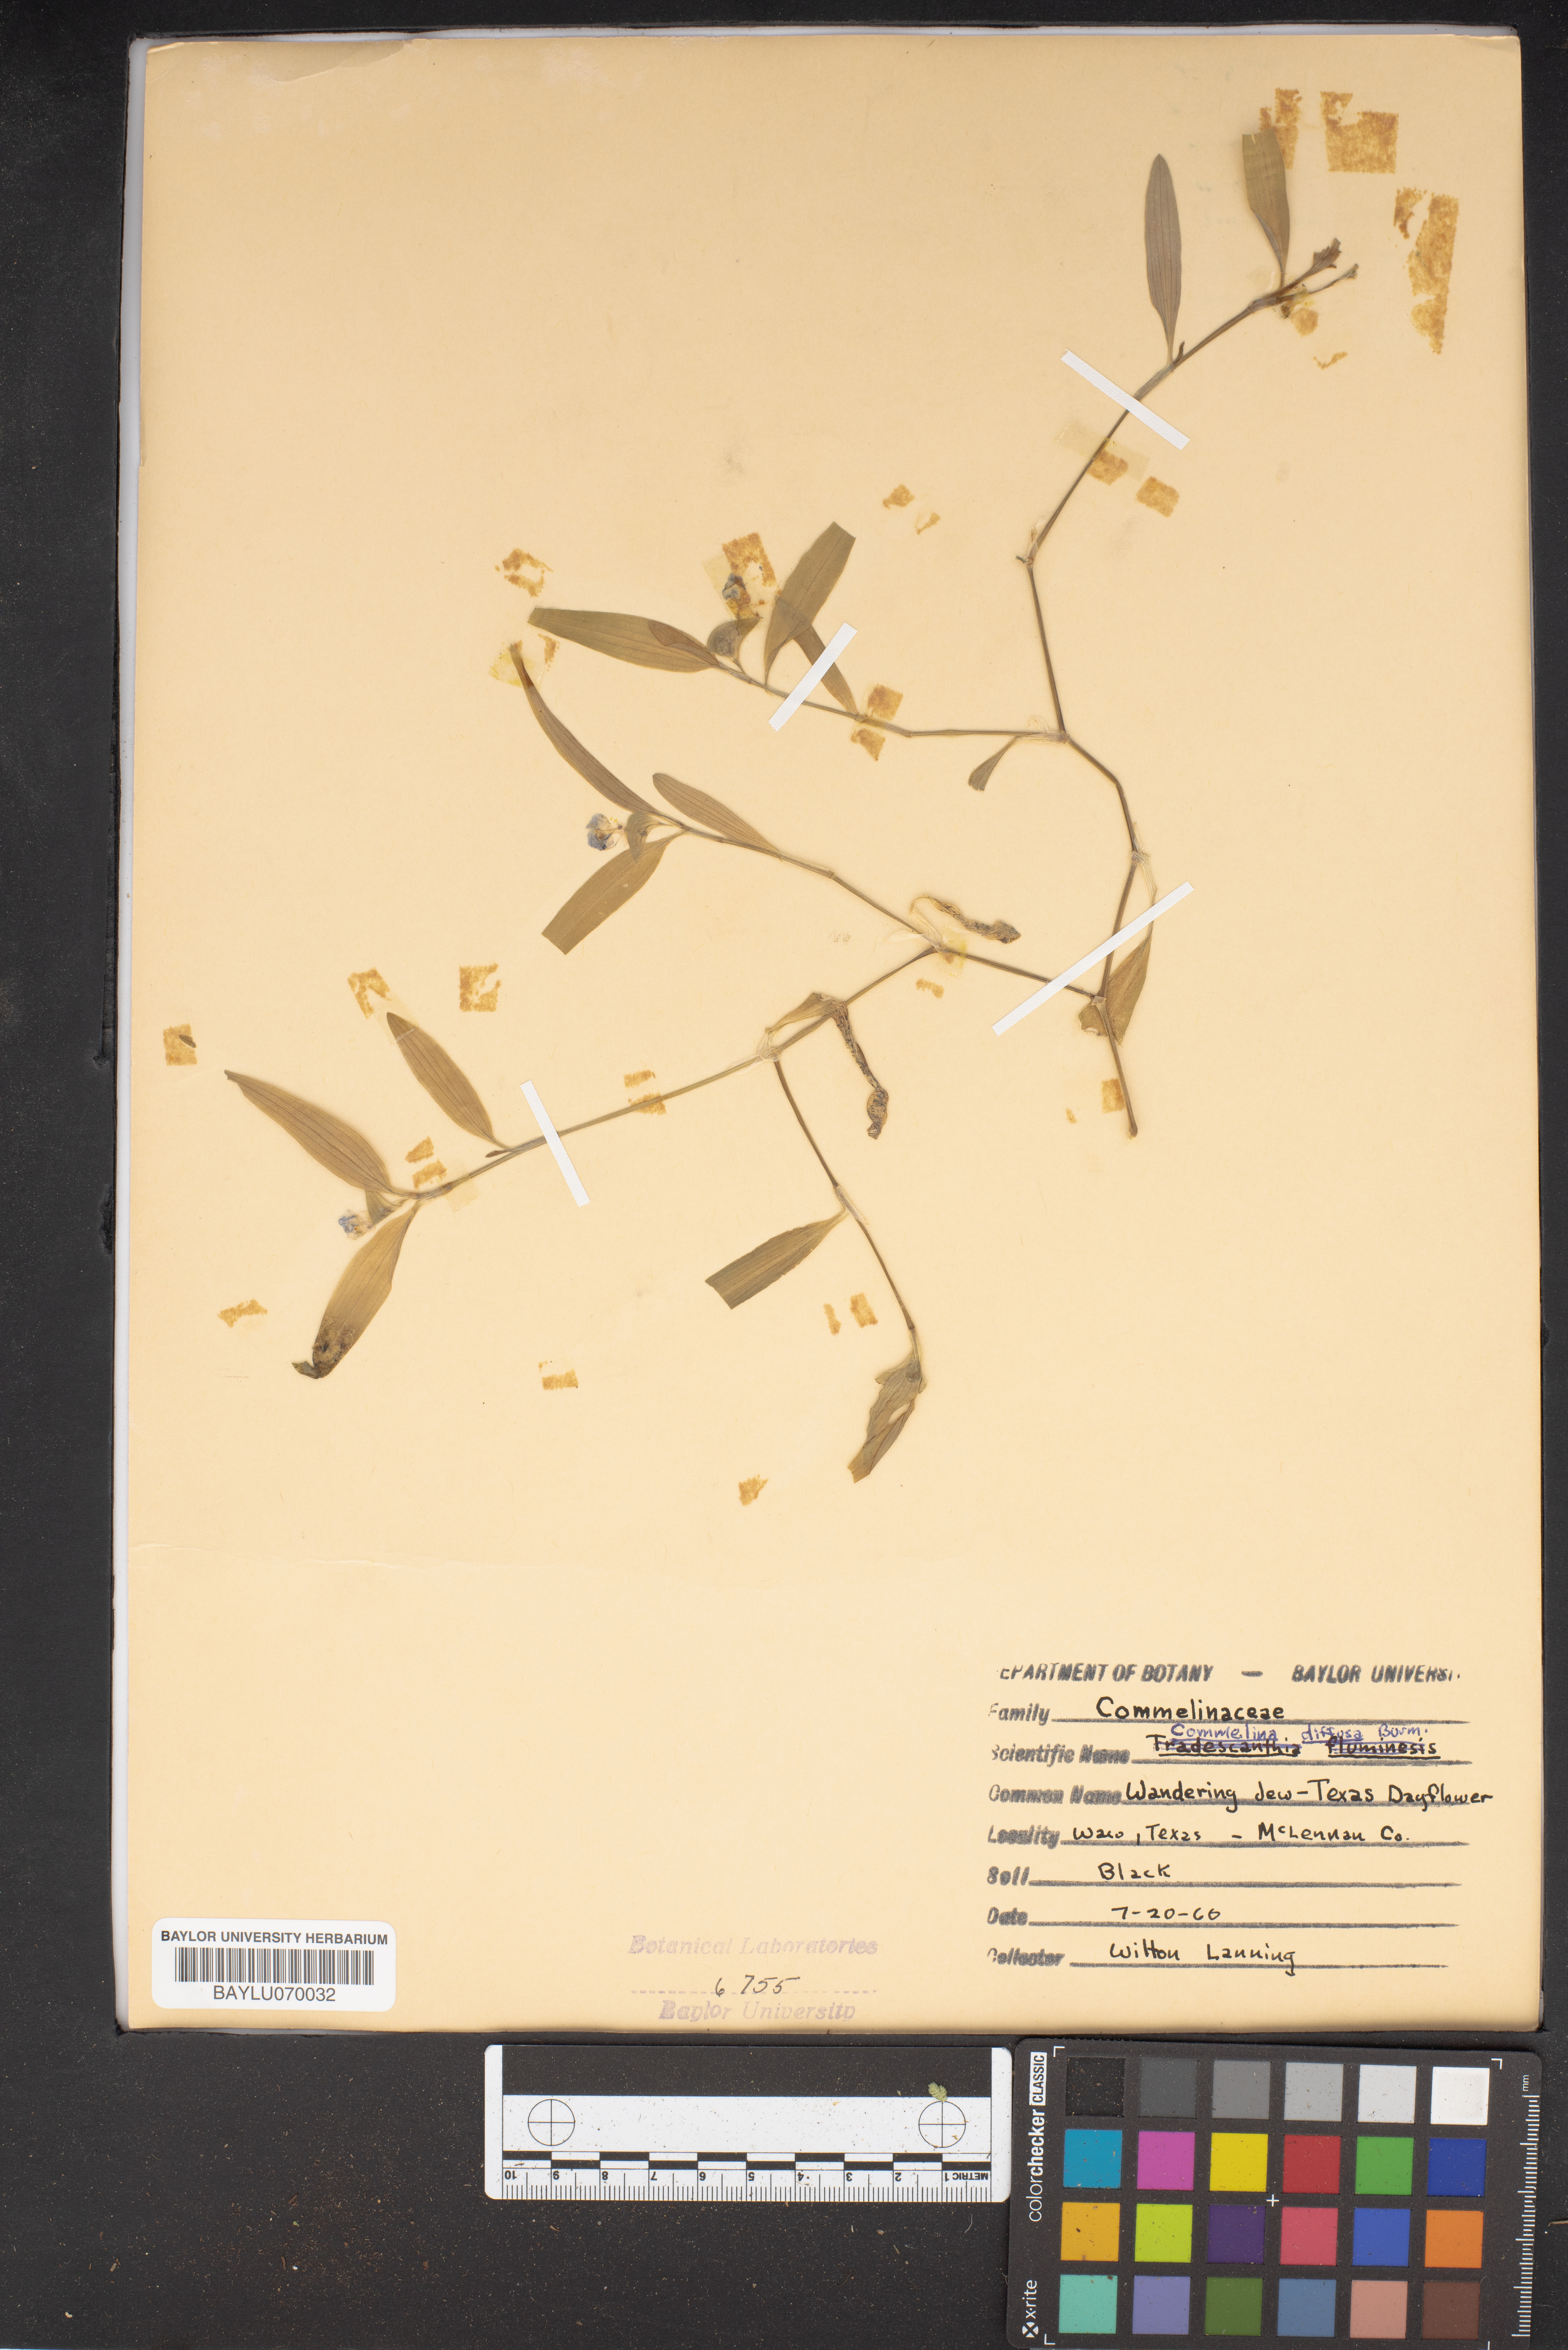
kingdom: Plantae
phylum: Tracheophyta
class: Liliopsida
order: Commelinales
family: Commelinaceae
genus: Commelina
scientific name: Commelina diffusa
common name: Climbing dayflower
